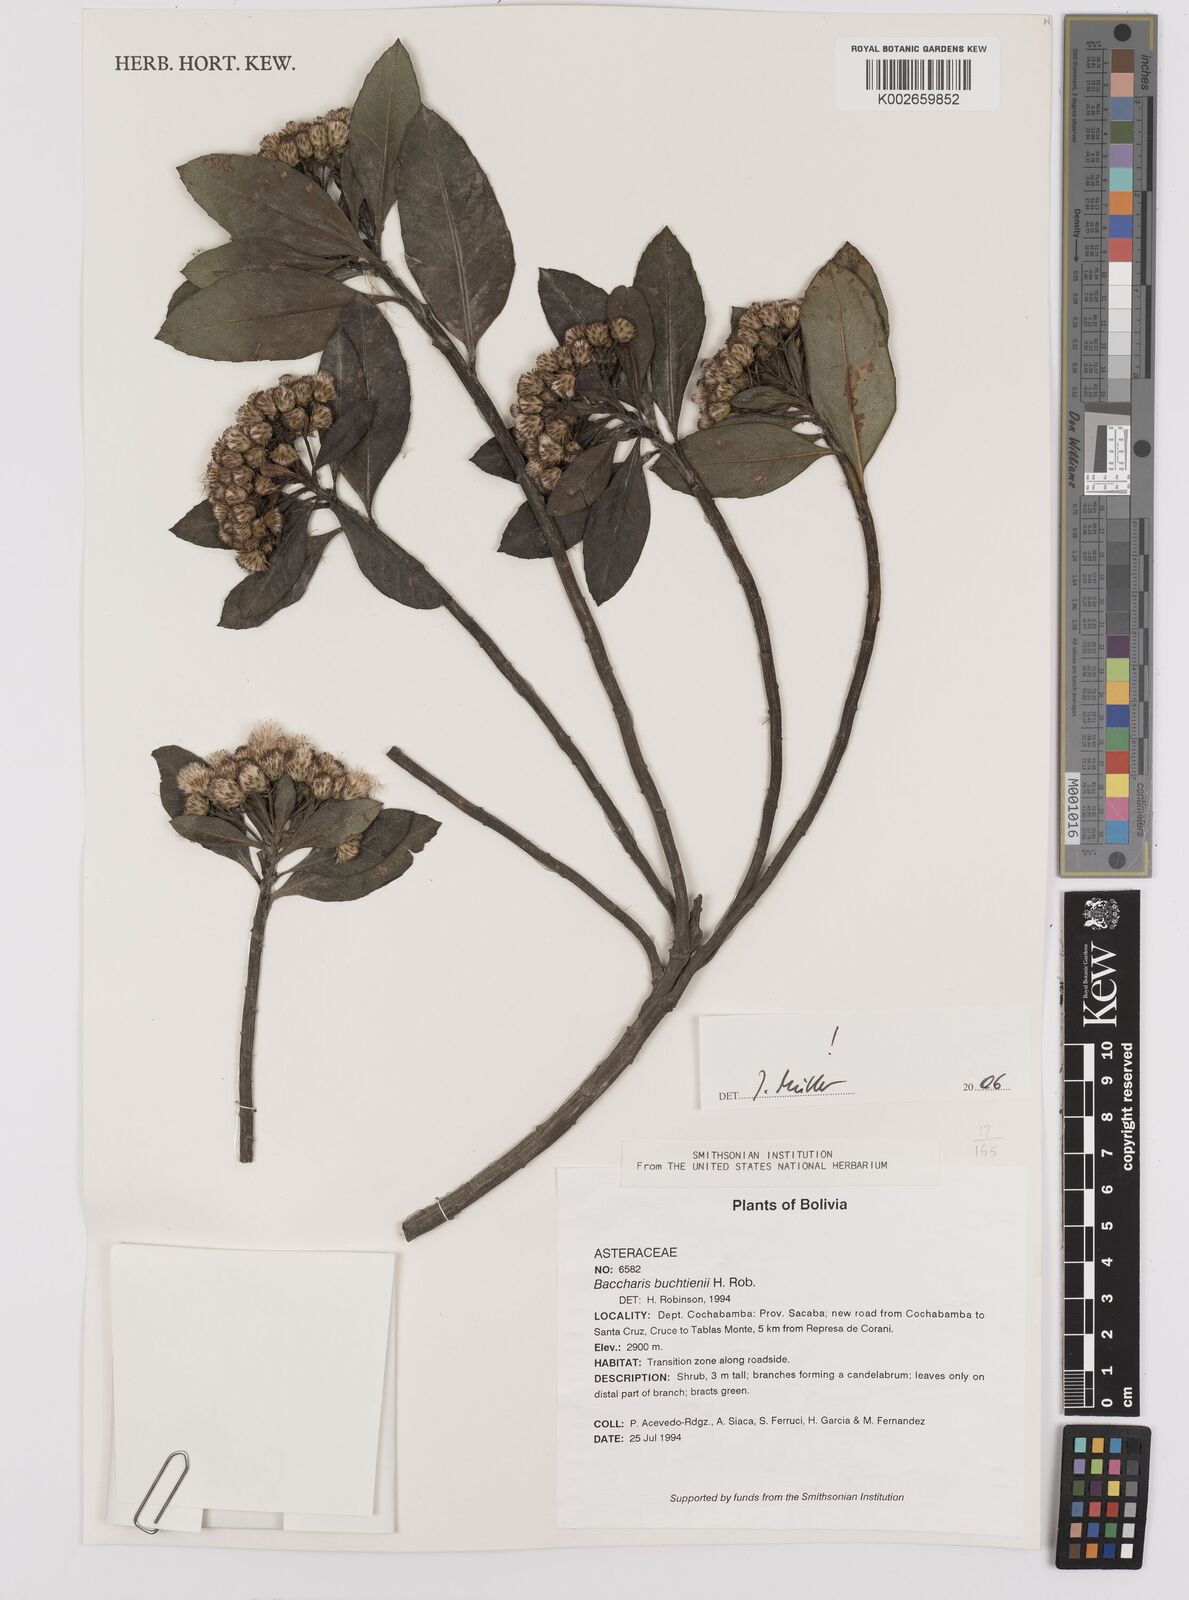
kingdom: Plantae
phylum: Tracheophyta
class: Magnoliopsida
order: Asterales
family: Asteraceae
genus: Baccharis
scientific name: Baccharis buchtienii
